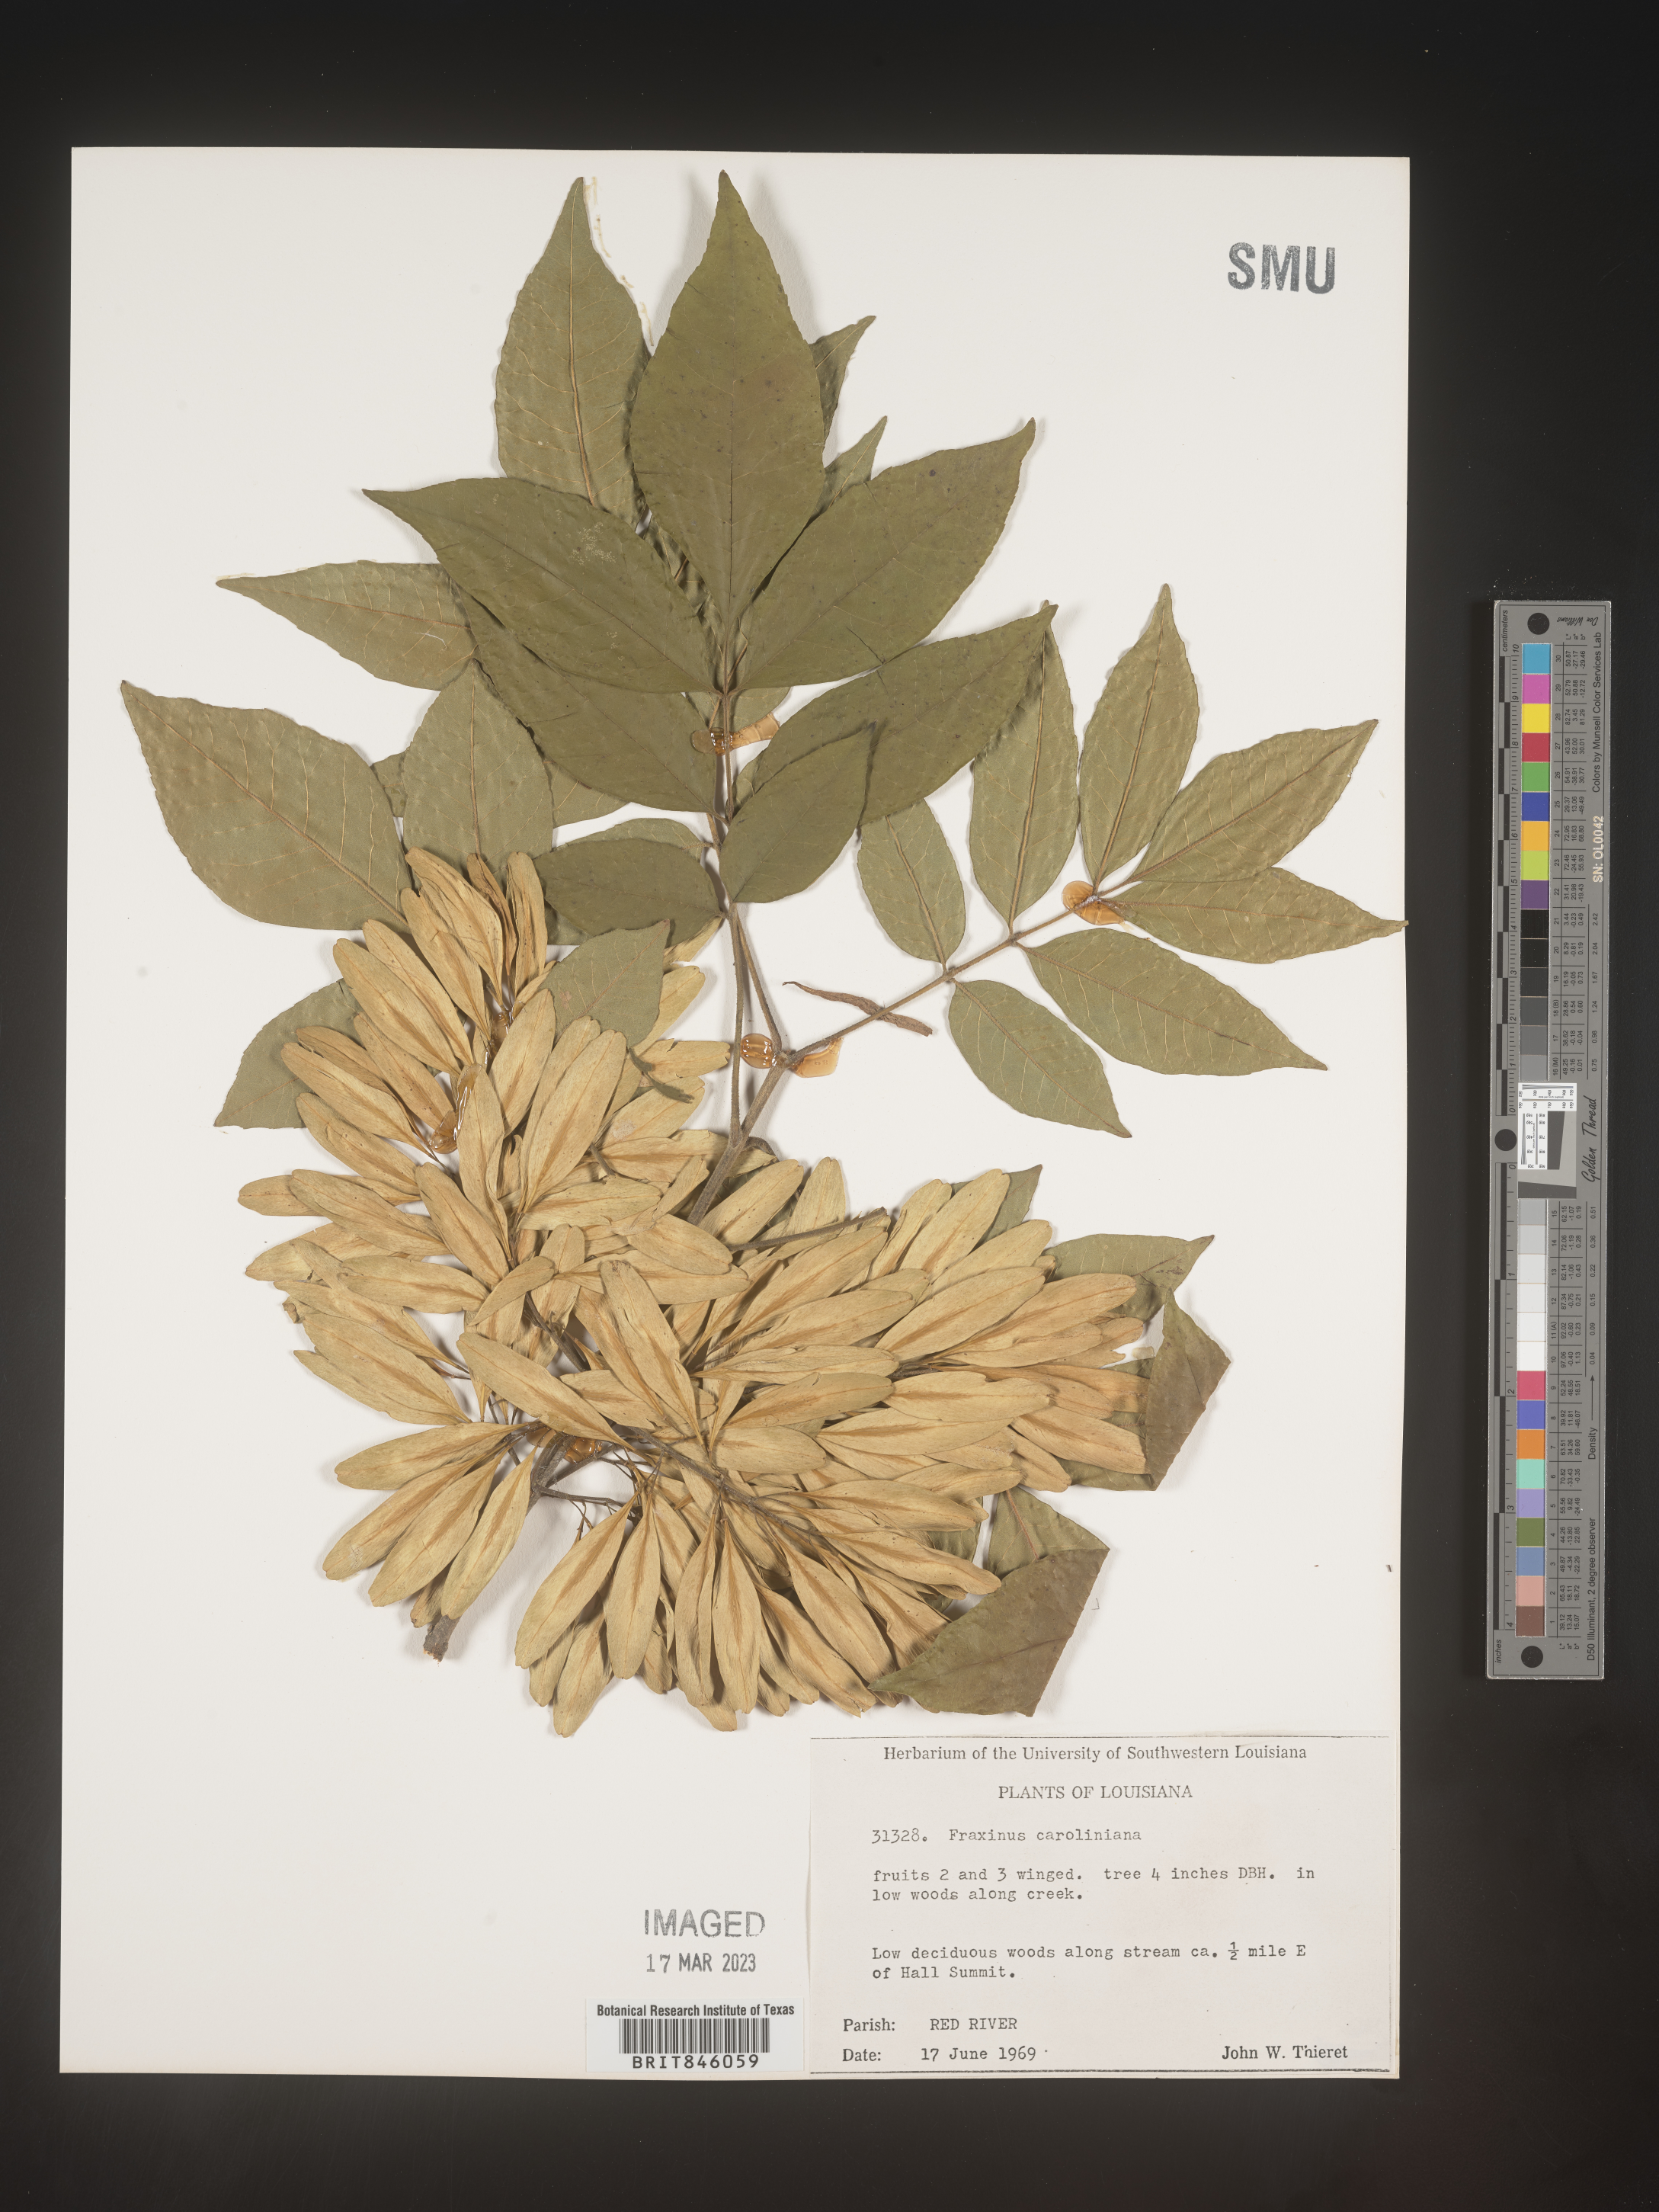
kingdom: Plantae
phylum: Tracheophyta
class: Magnoliopsida
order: Lamiales
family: Oleaceae
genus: Fraxinus
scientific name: Fraxinus caroliniana
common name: Carolina ash
